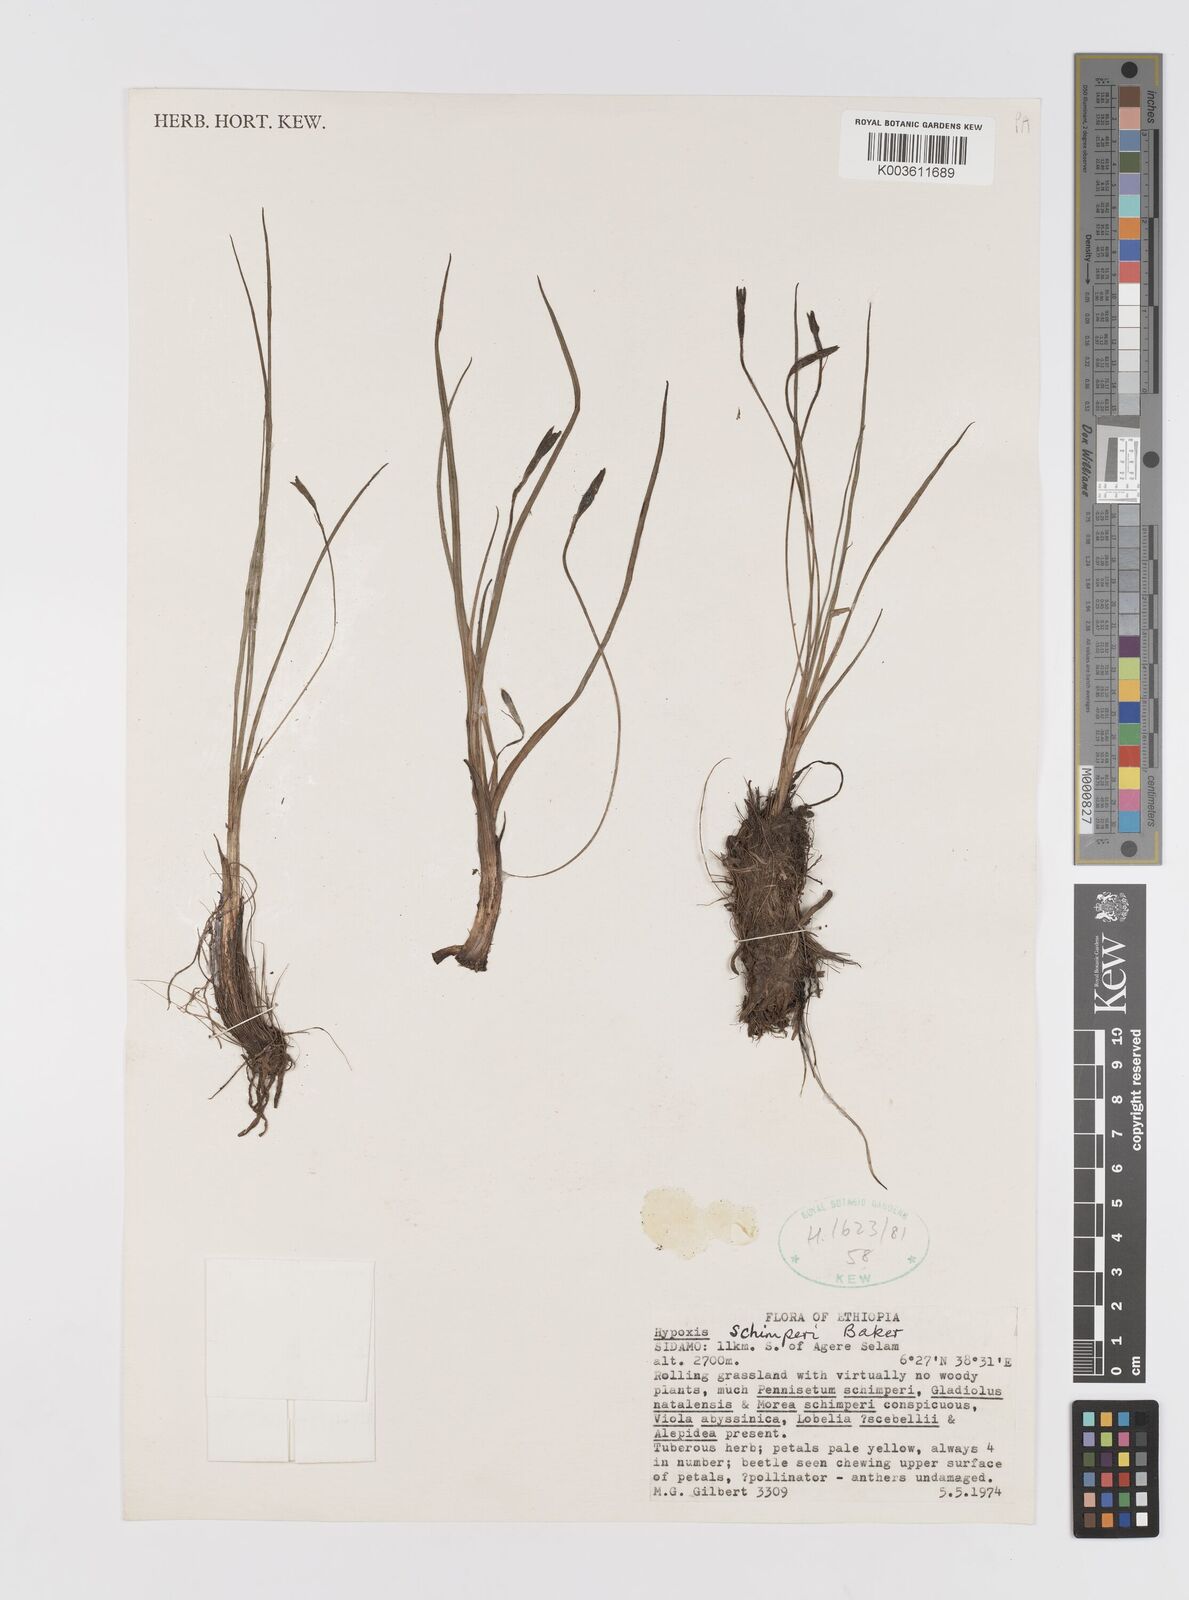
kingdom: Plantae
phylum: Tracheophyta
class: Liliopsida
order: Asparagales
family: Hypoxidaceae
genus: Hypoxis
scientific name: Hypoxis schimperi
